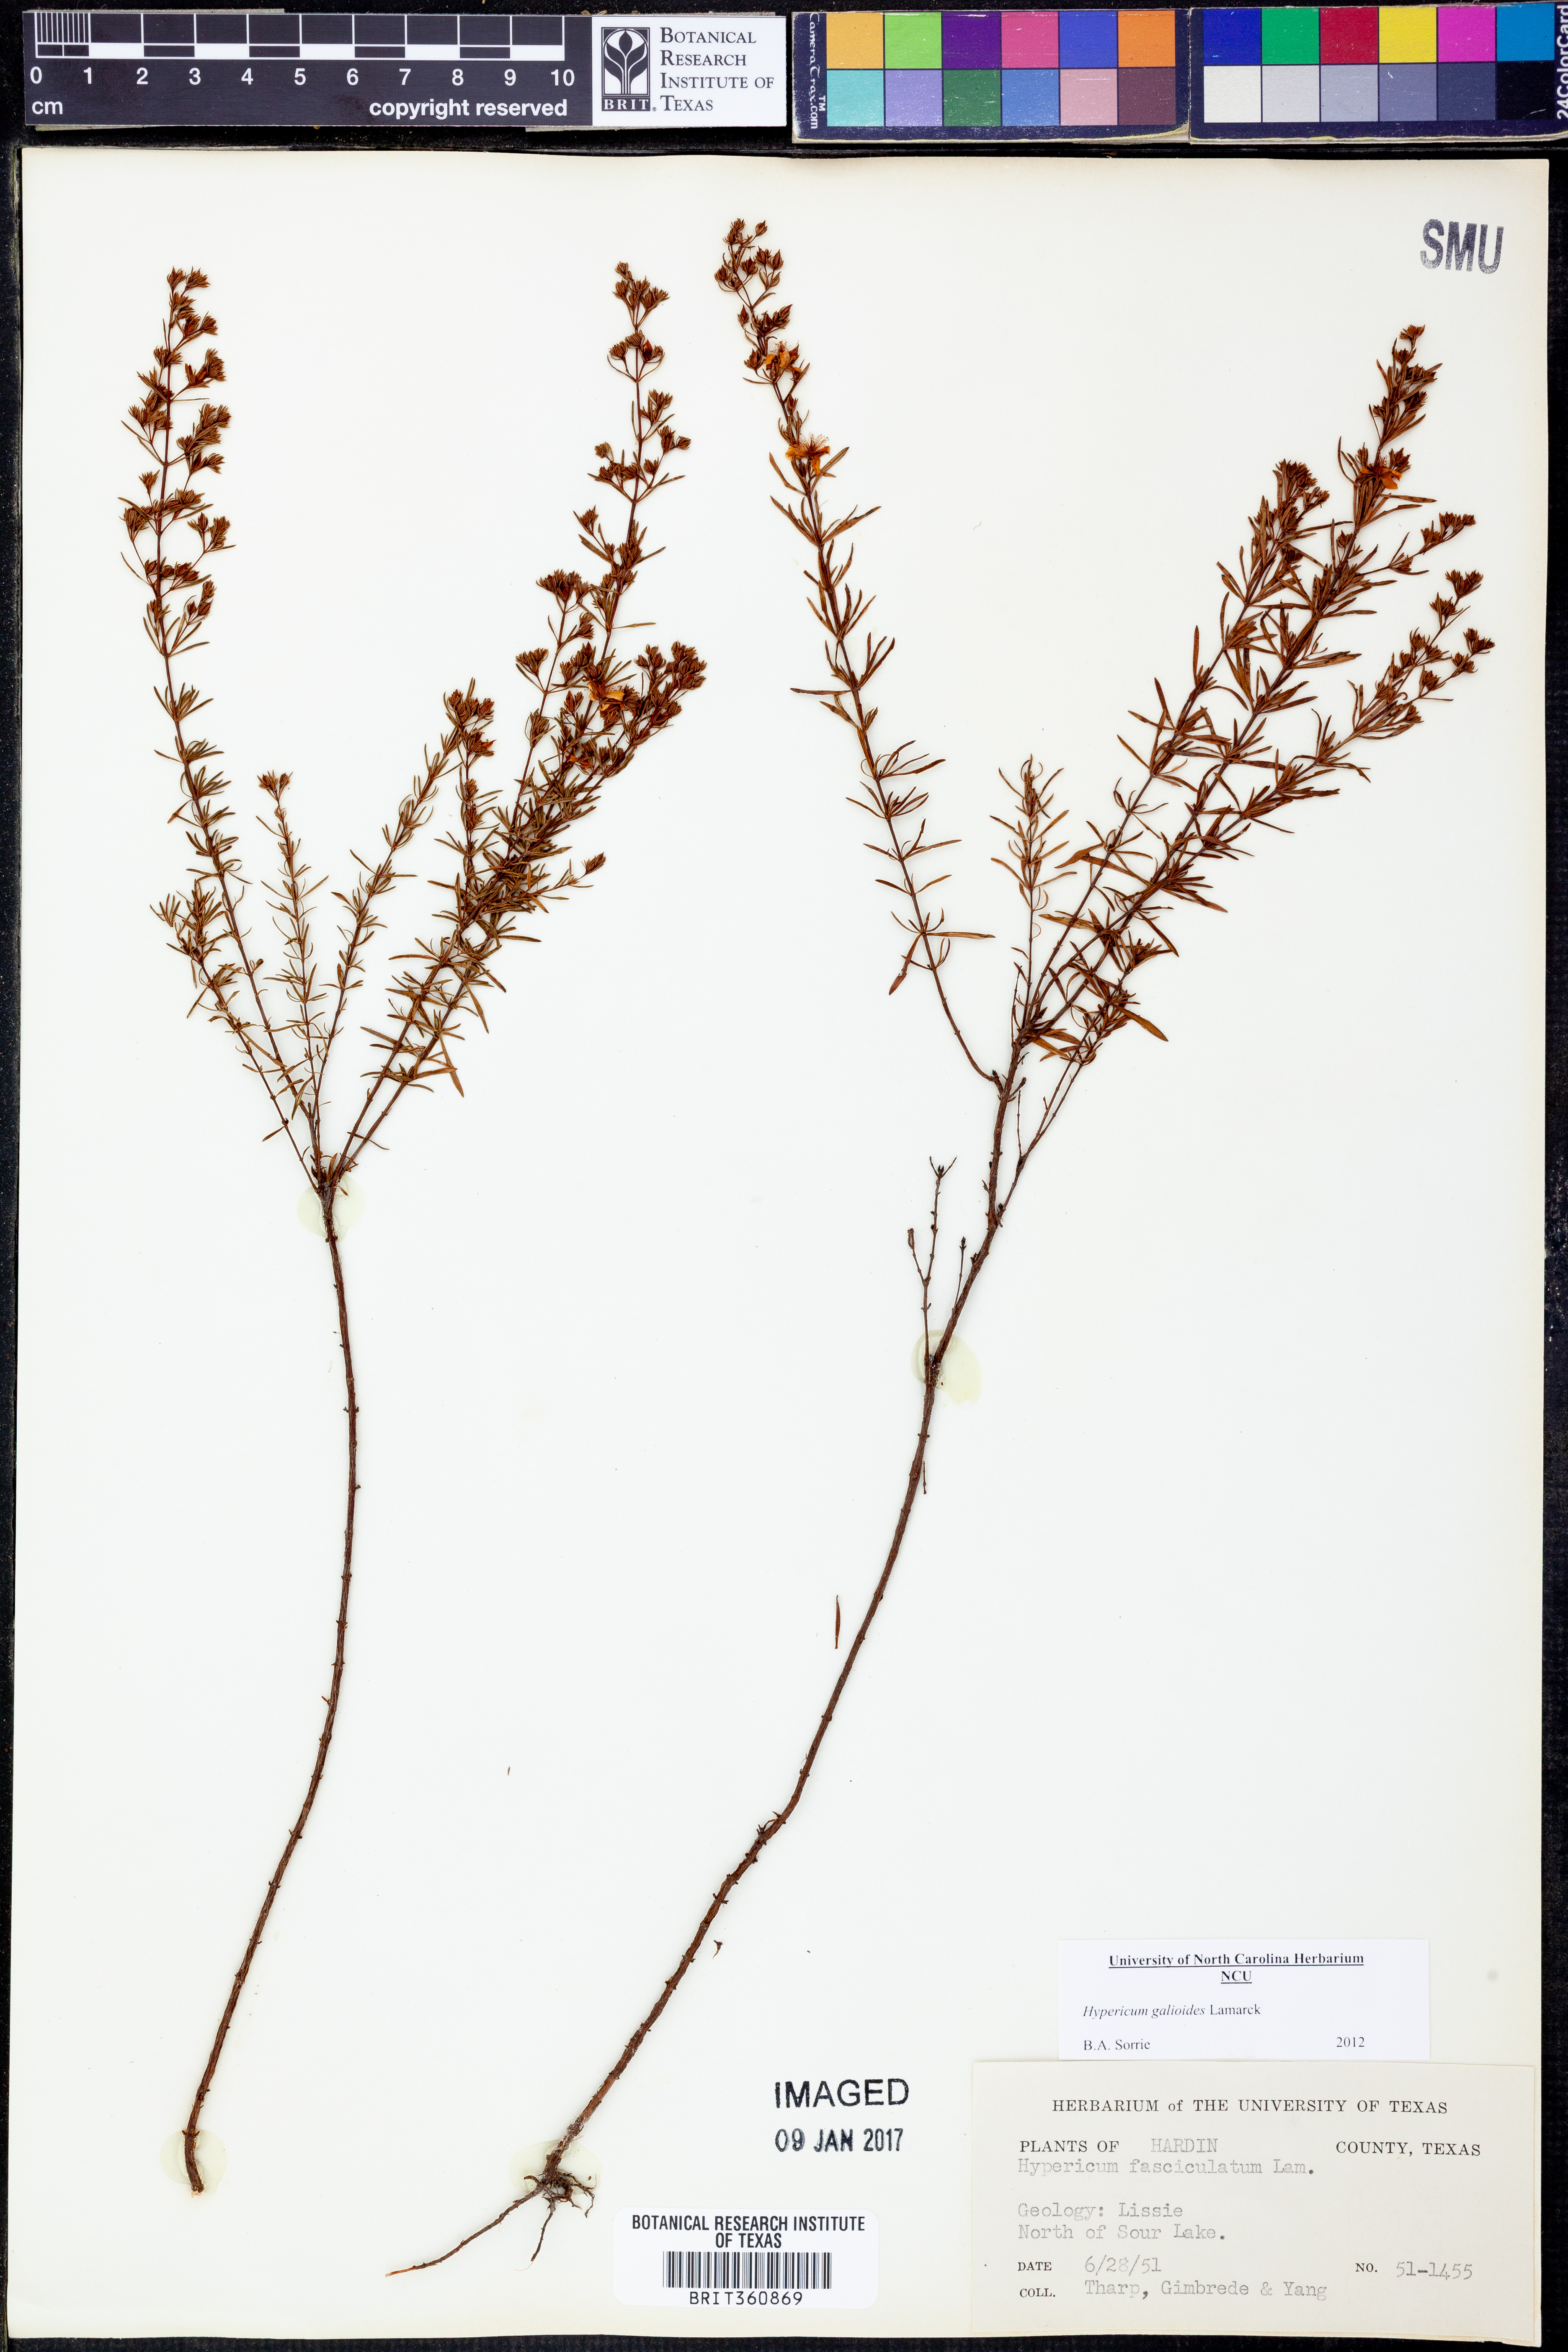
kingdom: Plantae
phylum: Tracheophyta
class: Magnoliopsida
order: Malpighiales
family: Hypericaceae
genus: Hypericum
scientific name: Hypericum galioides
